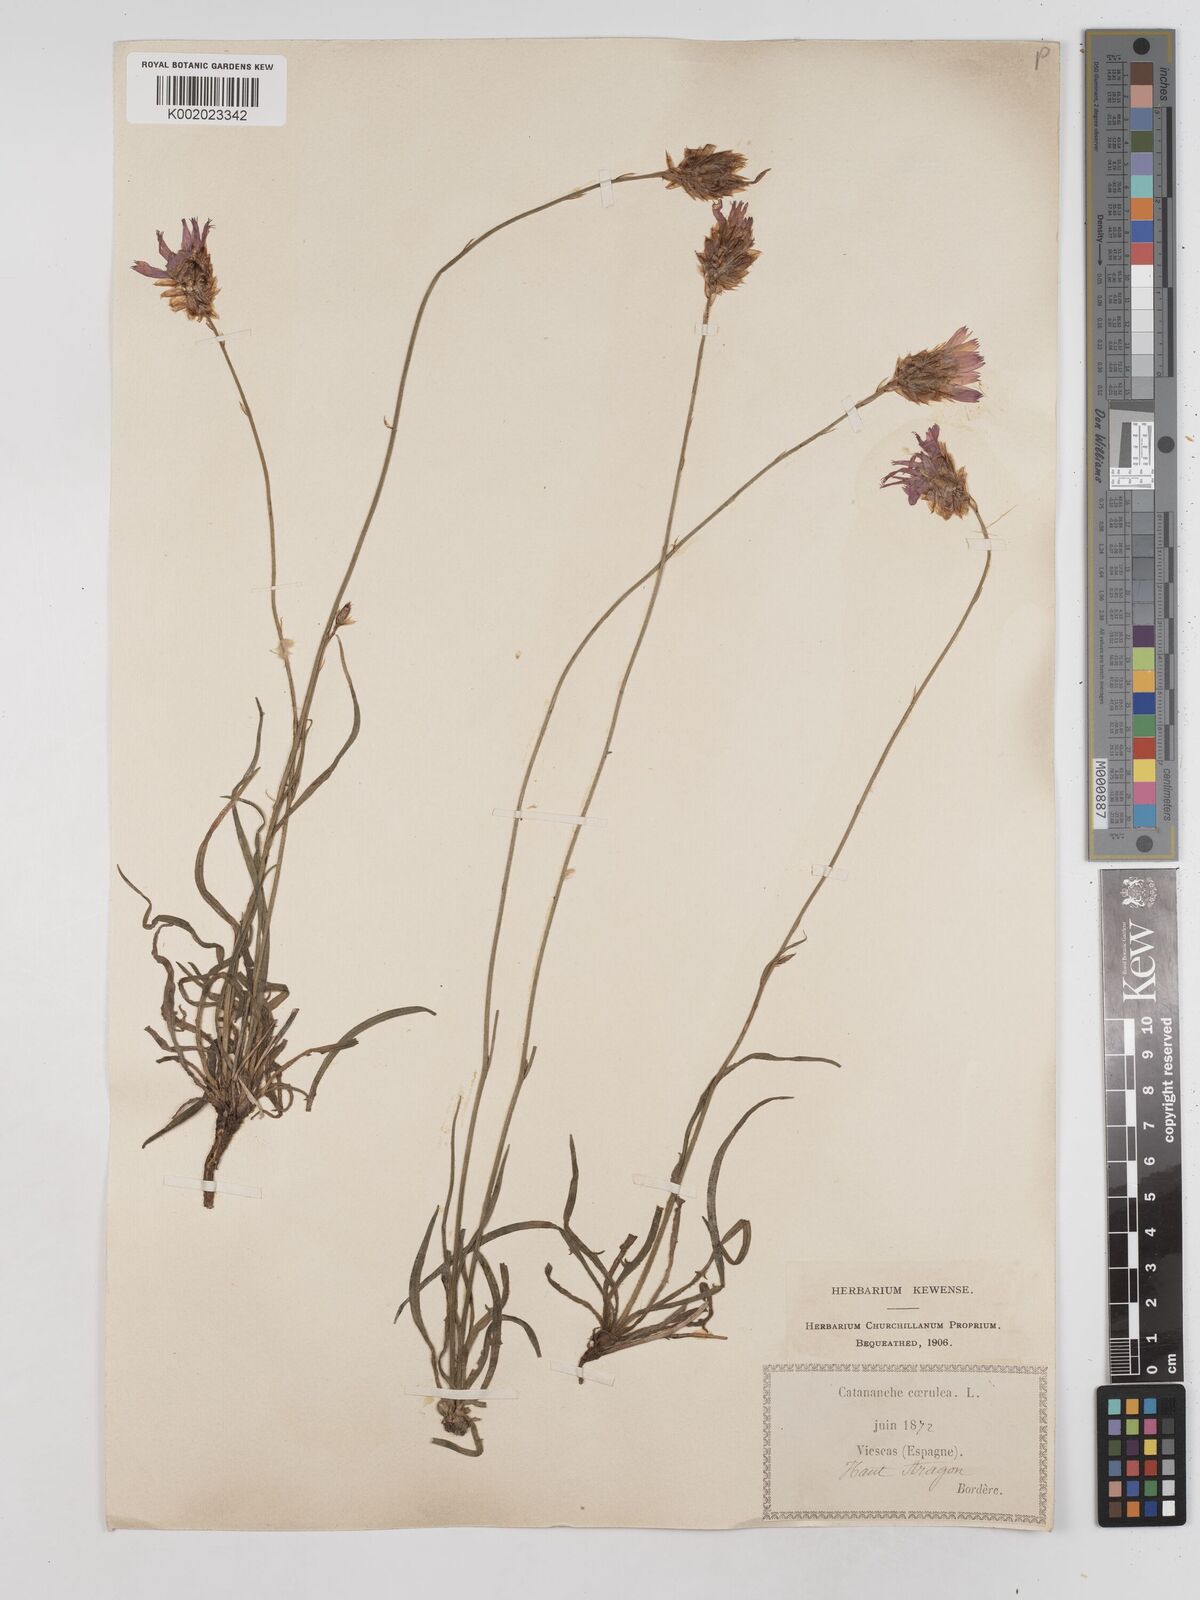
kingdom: Plantae
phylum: Tracheophyta
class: Magnoliopsida
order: Asterales
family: Asteraceae
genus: Catananche
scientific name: Catananche caerulea
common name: Blue cupidone
